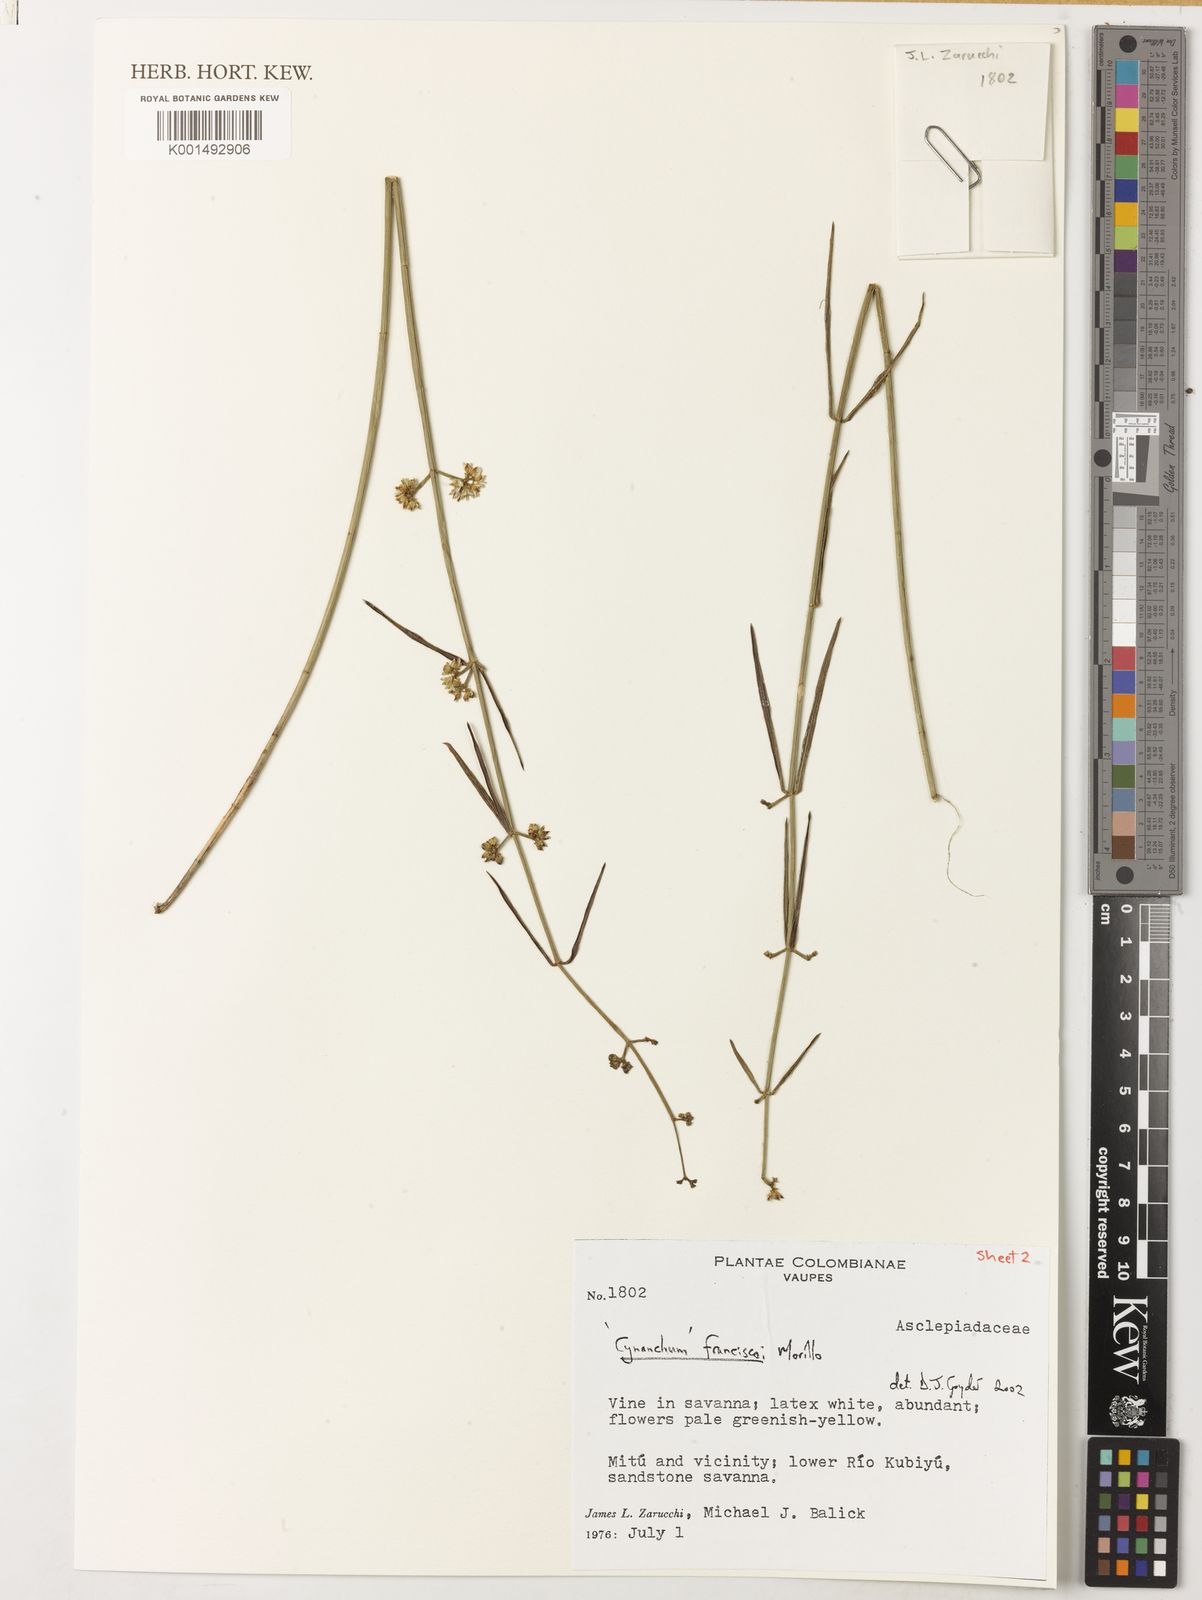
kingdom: Plantae
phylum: Tracheophyta
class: Magnoliopsida
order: Gentianales
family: Apocynaceae
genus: Ditassa
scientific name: Ditassa franciscoi
